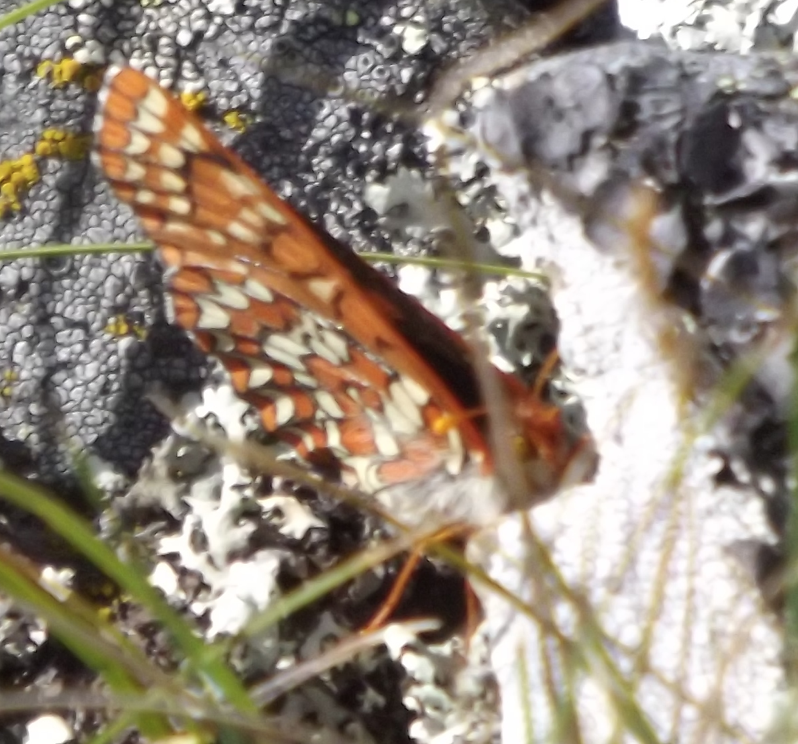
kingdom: Animalia
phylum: Arthropoda
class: Insecta
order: Lepidoptera
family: Nymphalidae
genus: Occidryas
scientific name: Occidryas anicia
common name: Anicia Checkerspot
